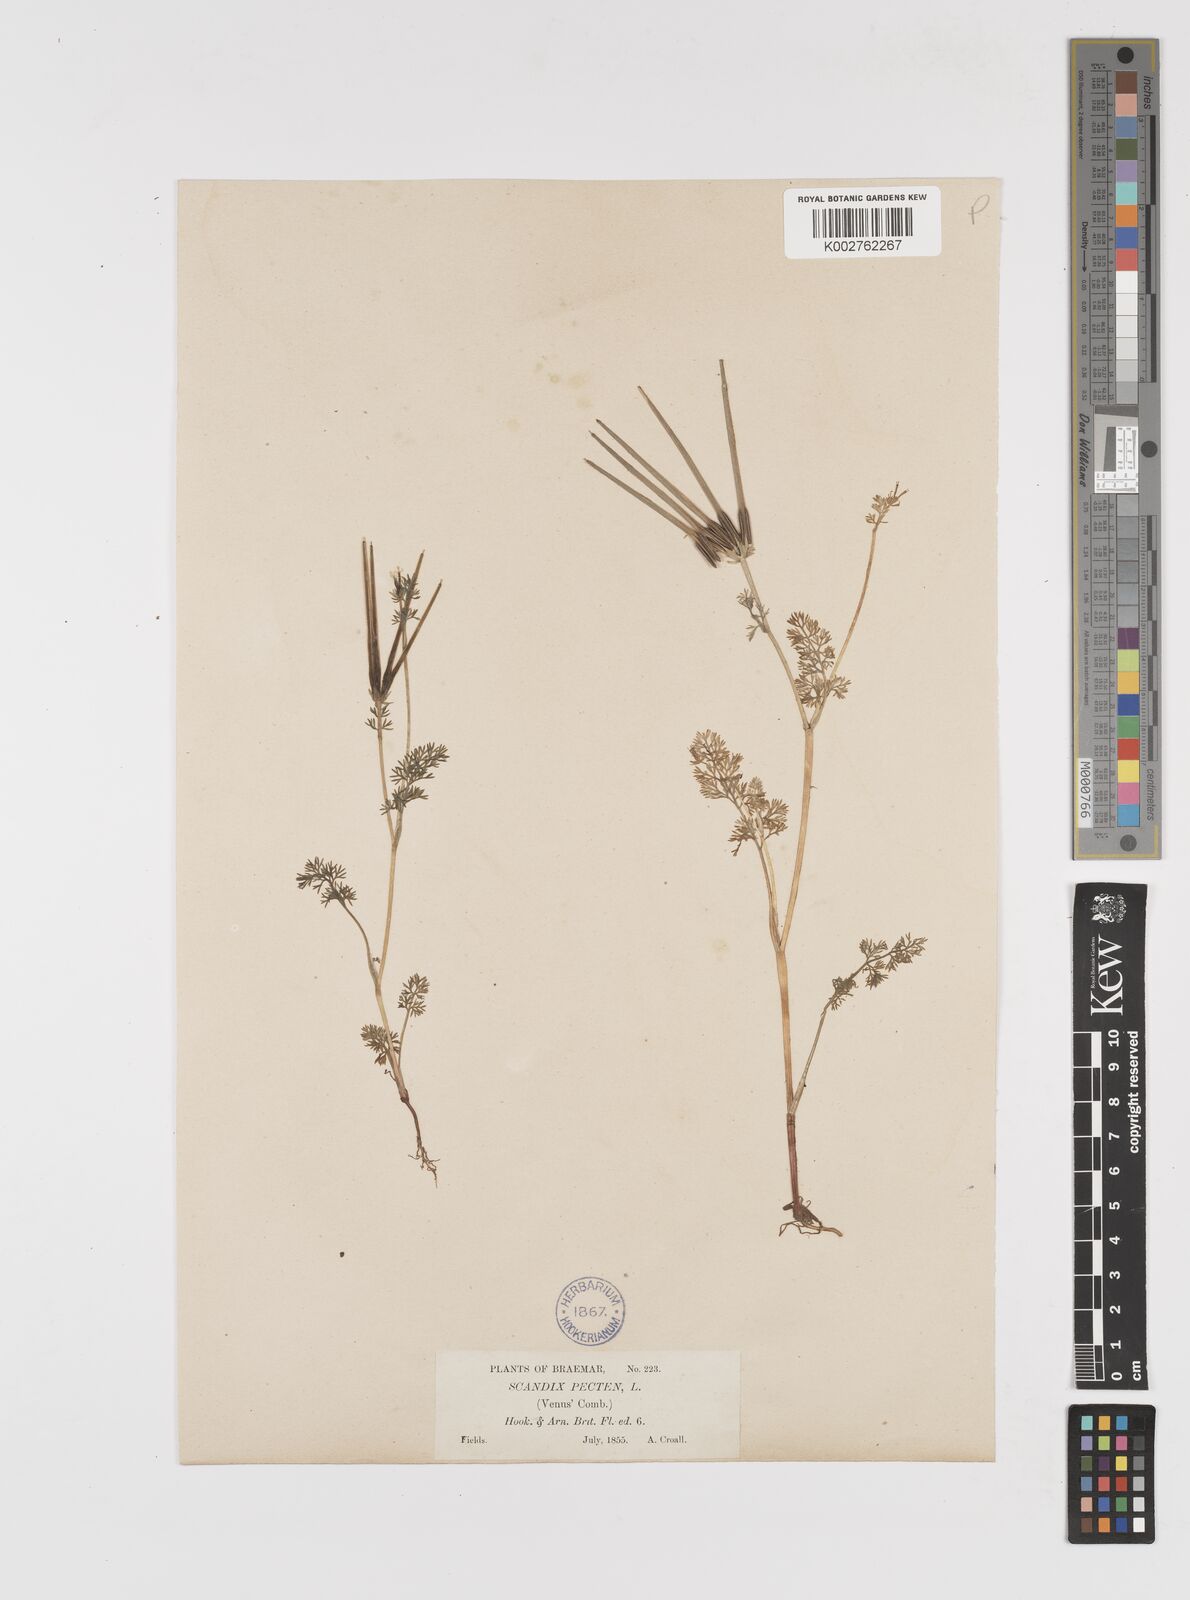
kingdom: Plantae
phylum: Tracheophyta
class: Magnoliopsida
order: Apiales
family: Apiaceae
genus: Scandix
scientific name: Scandix pecten-veneris
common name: Shepherd's-needle
